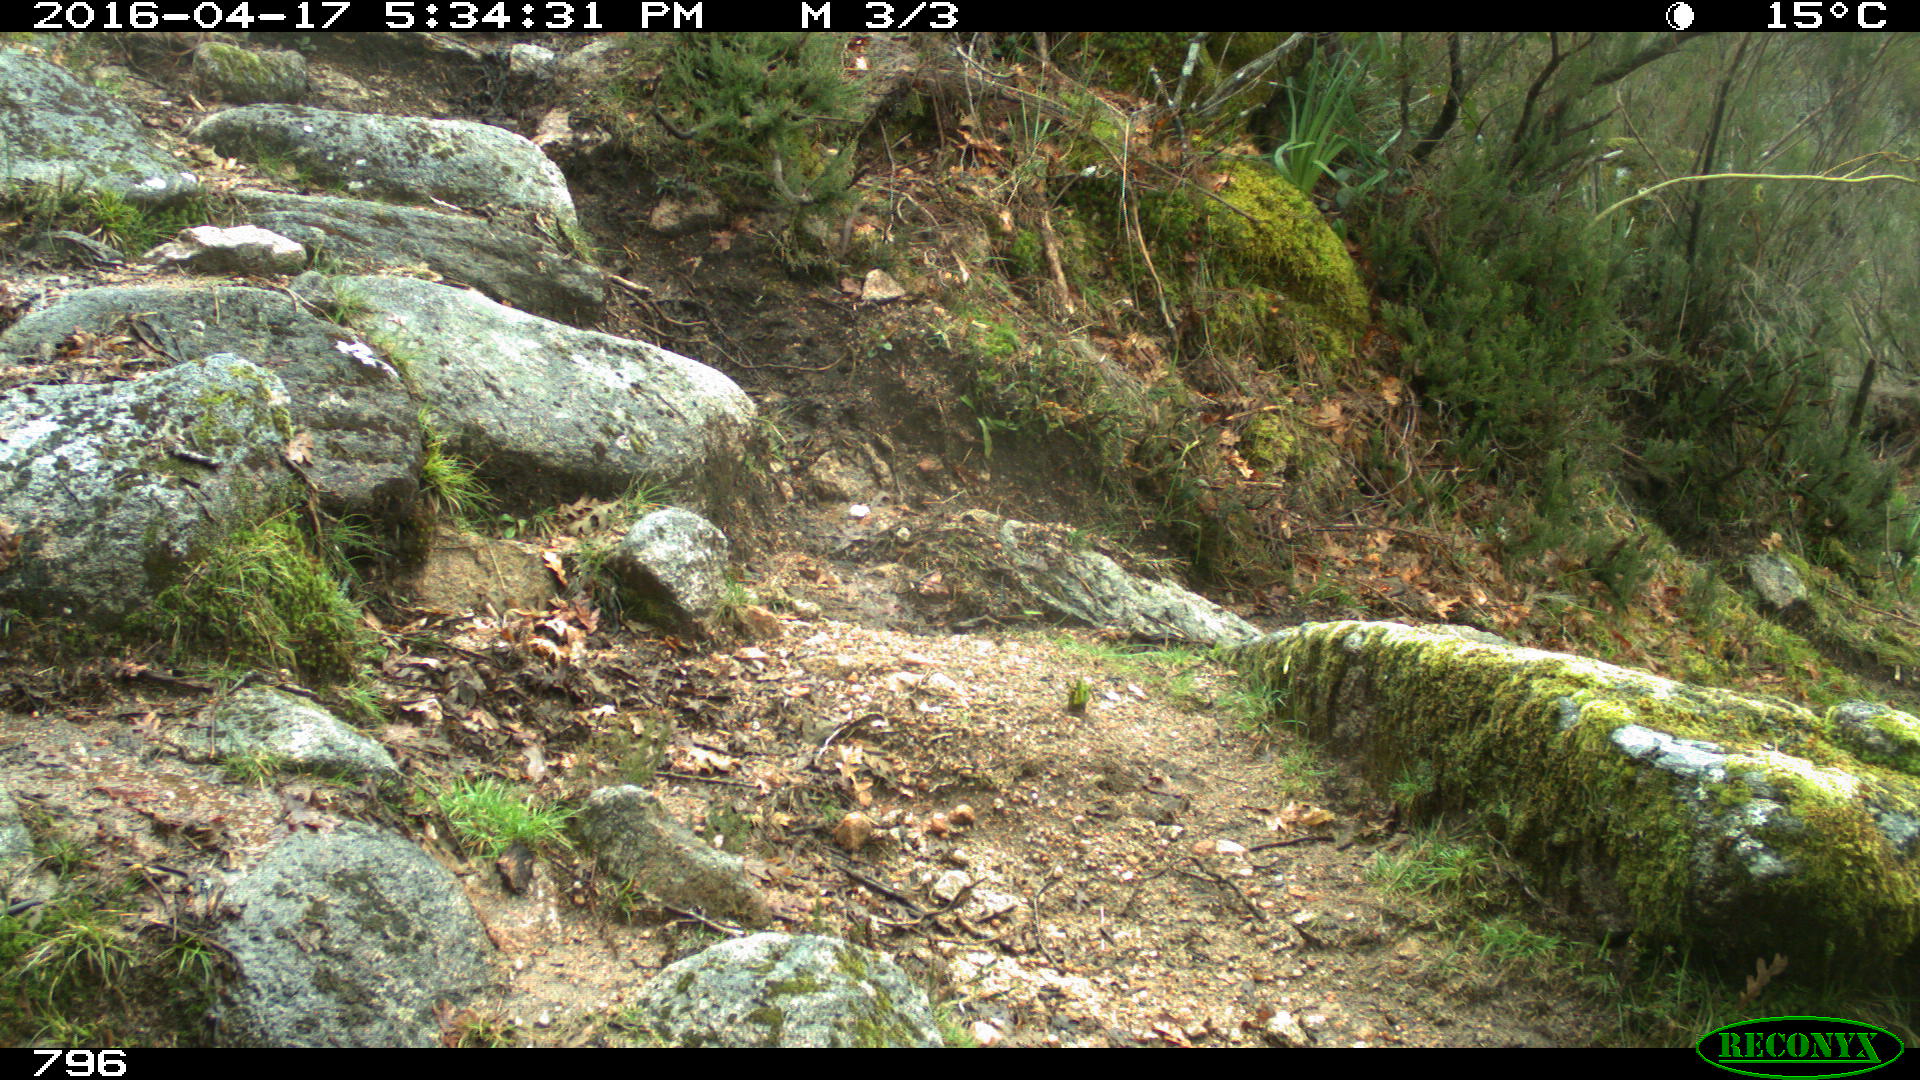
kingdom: Animalia
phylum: Chordata
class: Mammalia
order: Artiodactyla
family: Bovidae
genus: Bos
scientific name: Bos taurus
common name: Domesticated cattle
